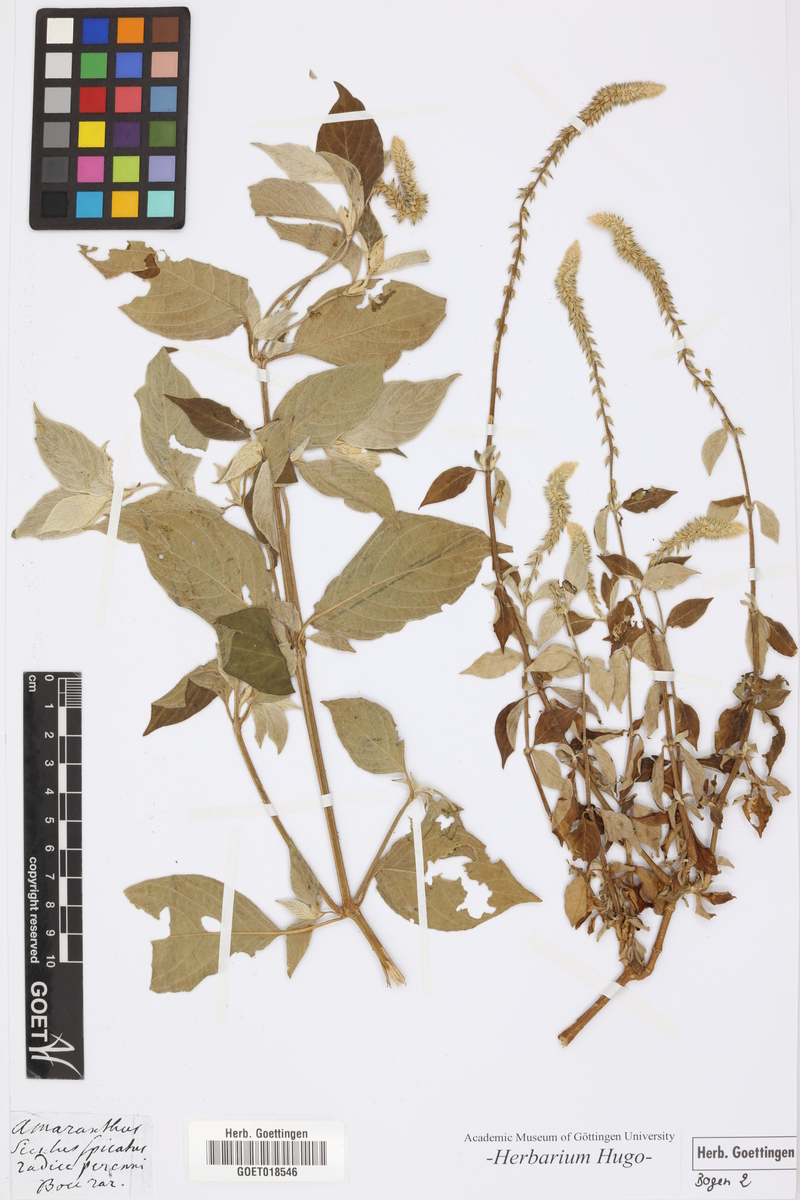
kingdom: Plantae
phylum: Tracheophyta
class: Magnoliopsida
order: Caryophyllales
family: Amaranthaceae
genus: Amaranthus
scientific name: Amaranthus
